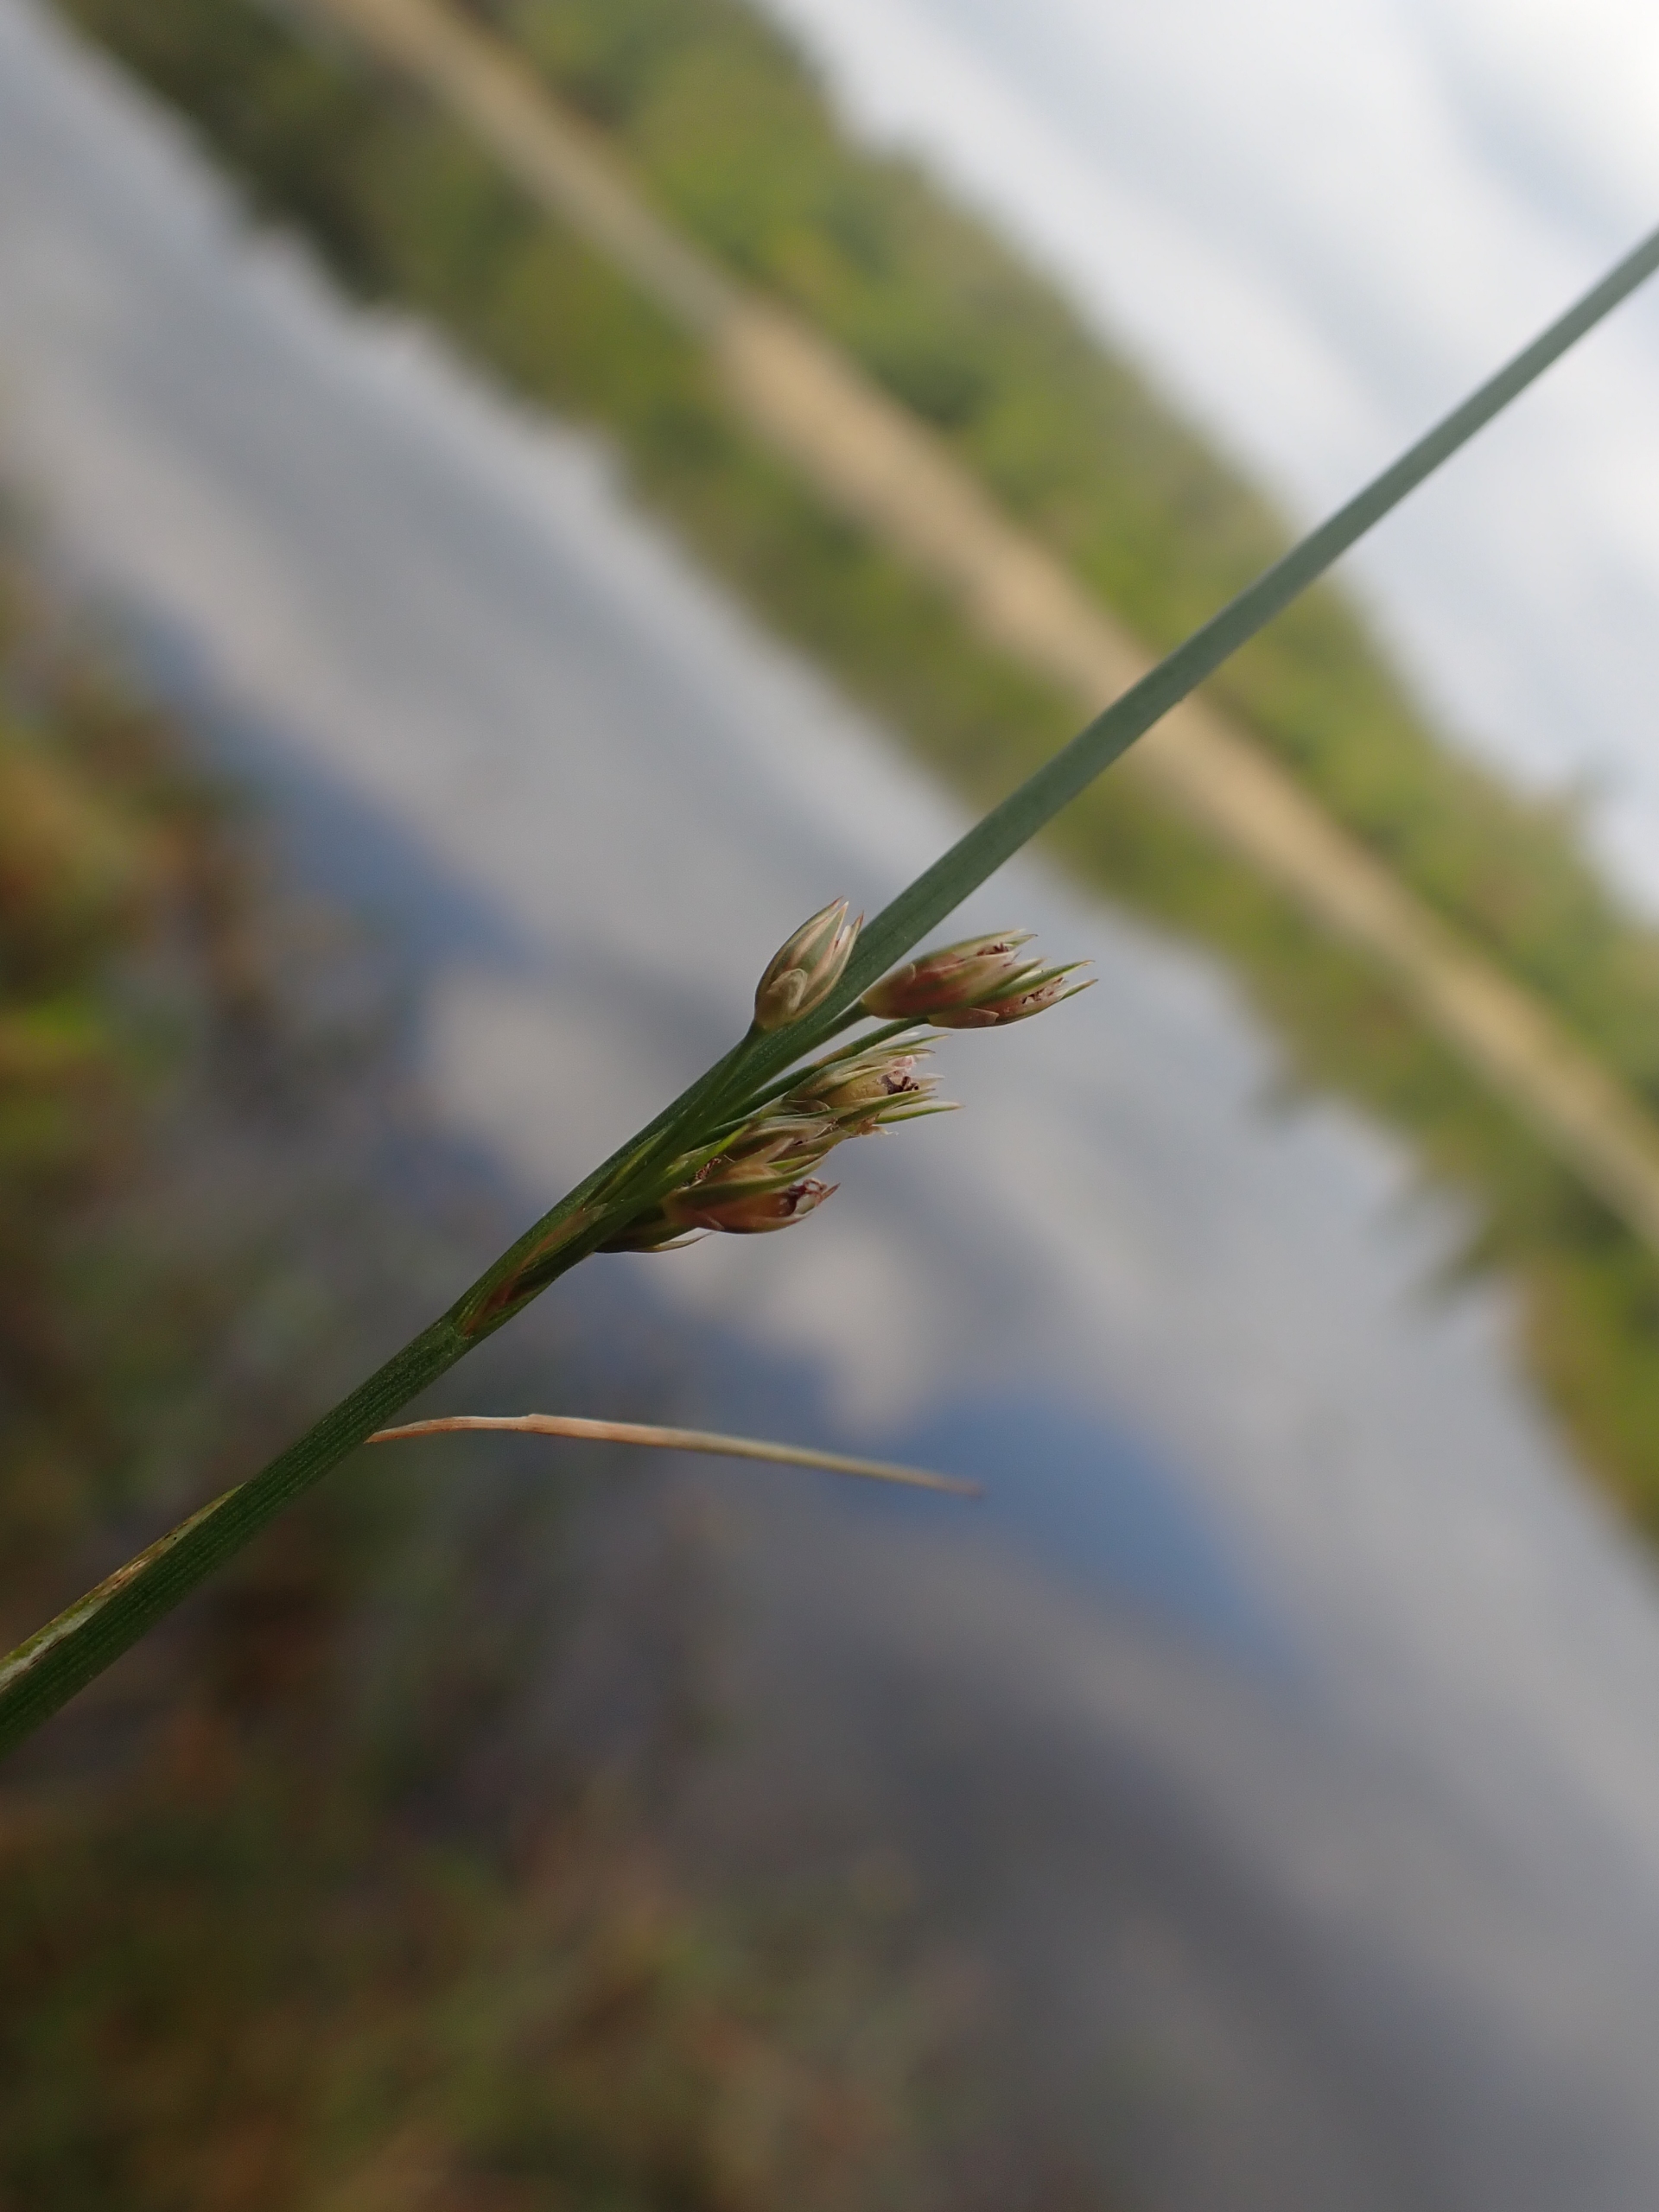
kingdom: Plantae
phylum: Tracheophyta
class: Liliopsida
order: Poales
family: Juncaceae
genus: Juncus
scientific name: Juncus filiformis
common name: Tråd-siv
